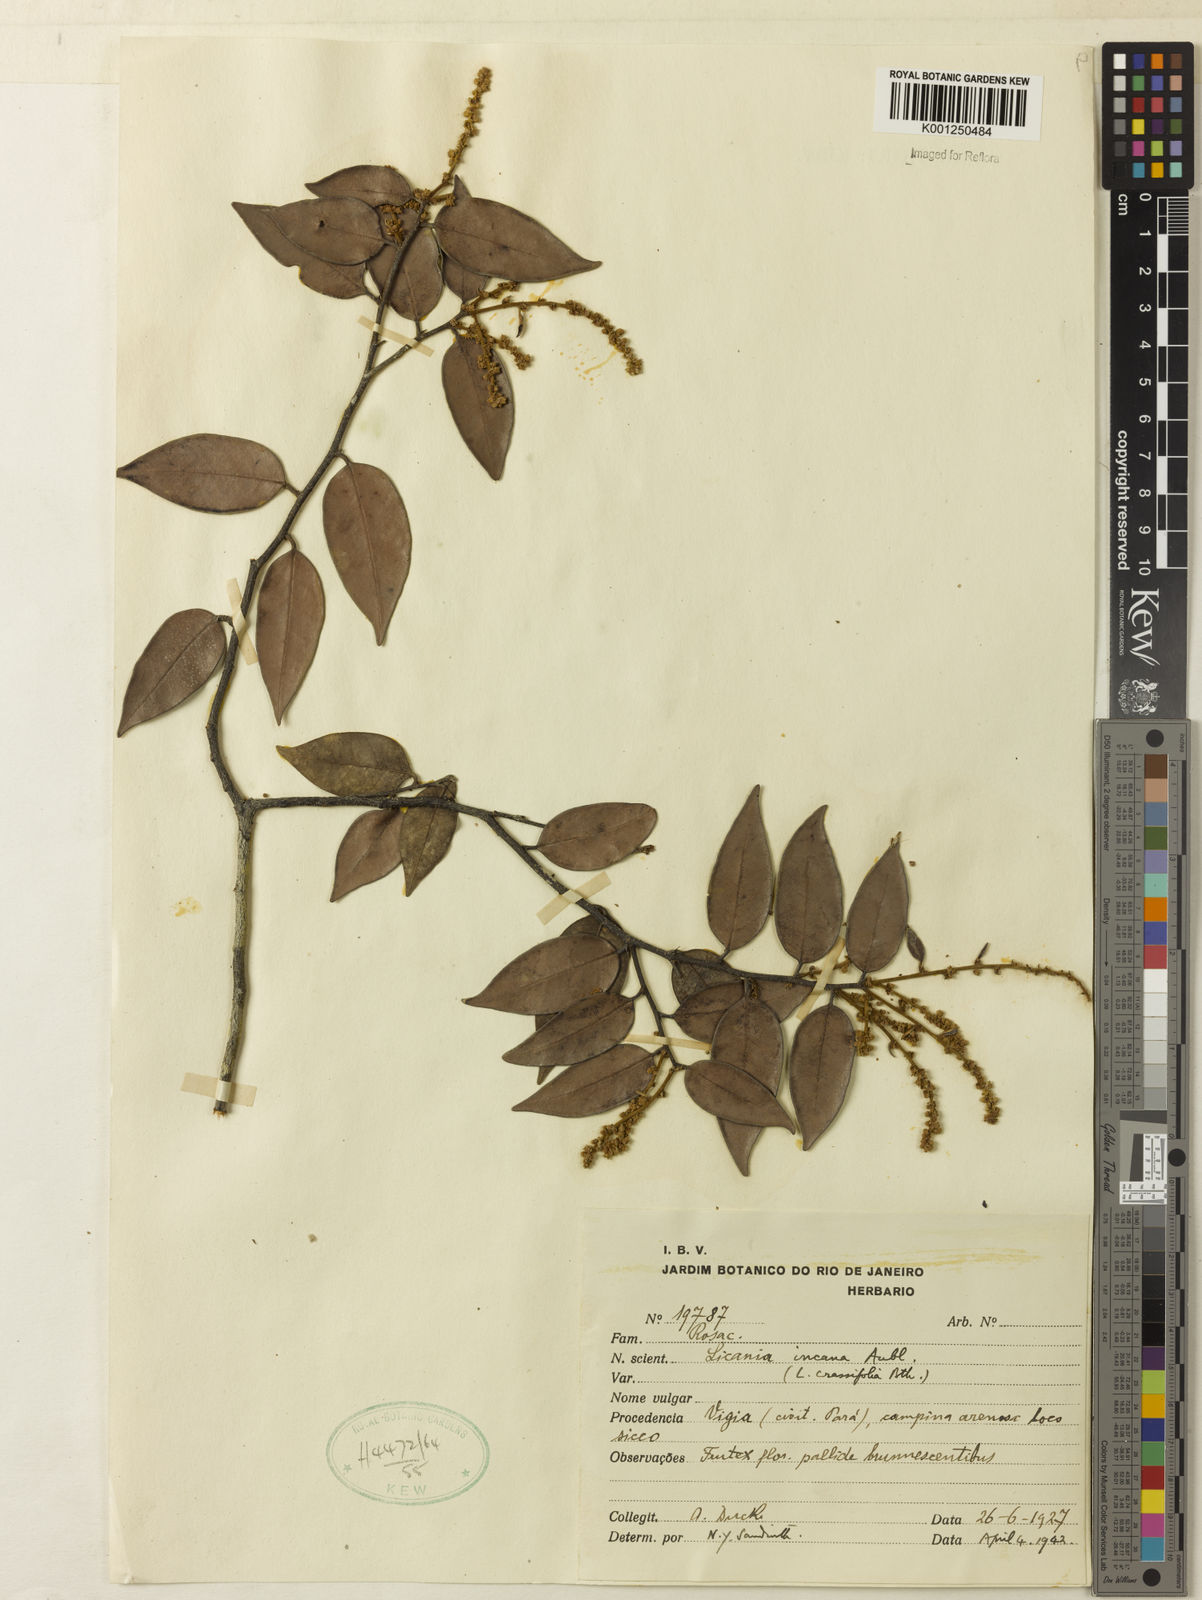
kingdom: Plantae
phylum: Tracheophyta
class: Magnoliopsida
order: Malpighiales
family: Chrysobalanaceae
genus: Licania
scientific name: Licania incana
